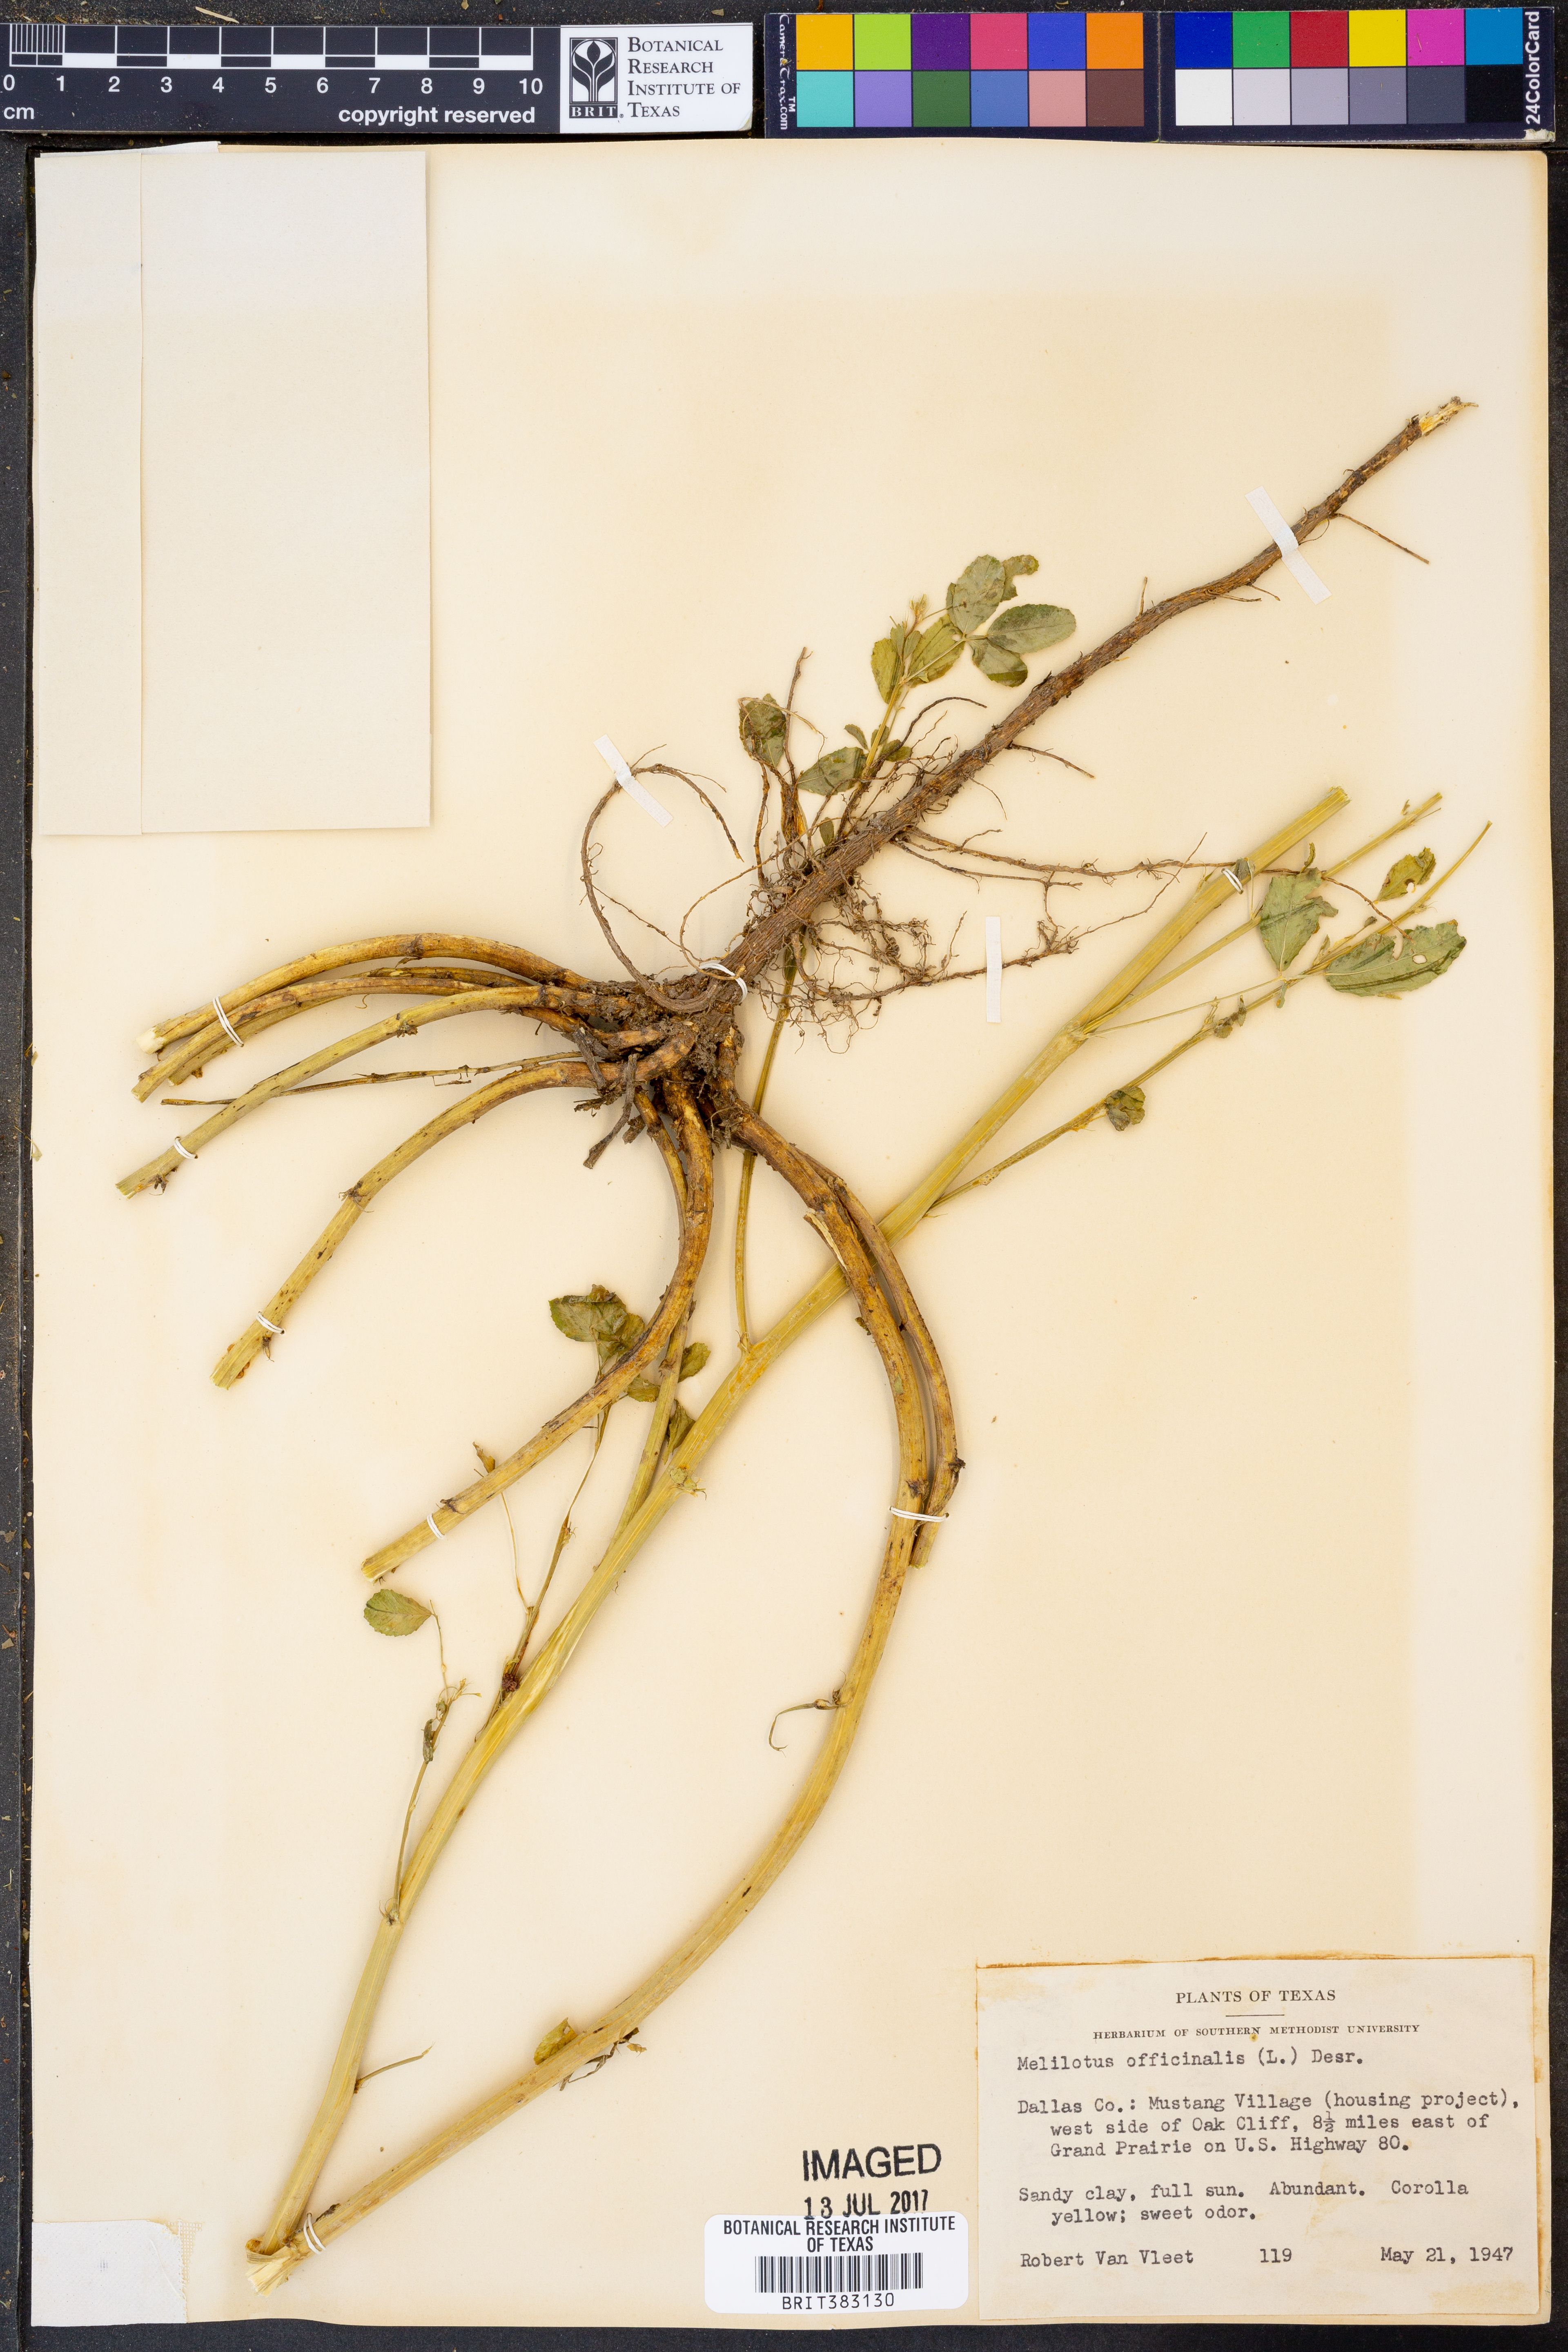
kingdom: Plantae
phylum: Tracheophyta
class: Magnoliopsida
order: Fabales
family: Fabaceae
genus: Melilotus
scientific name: Melilotus officinalis
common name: Sweetclover
